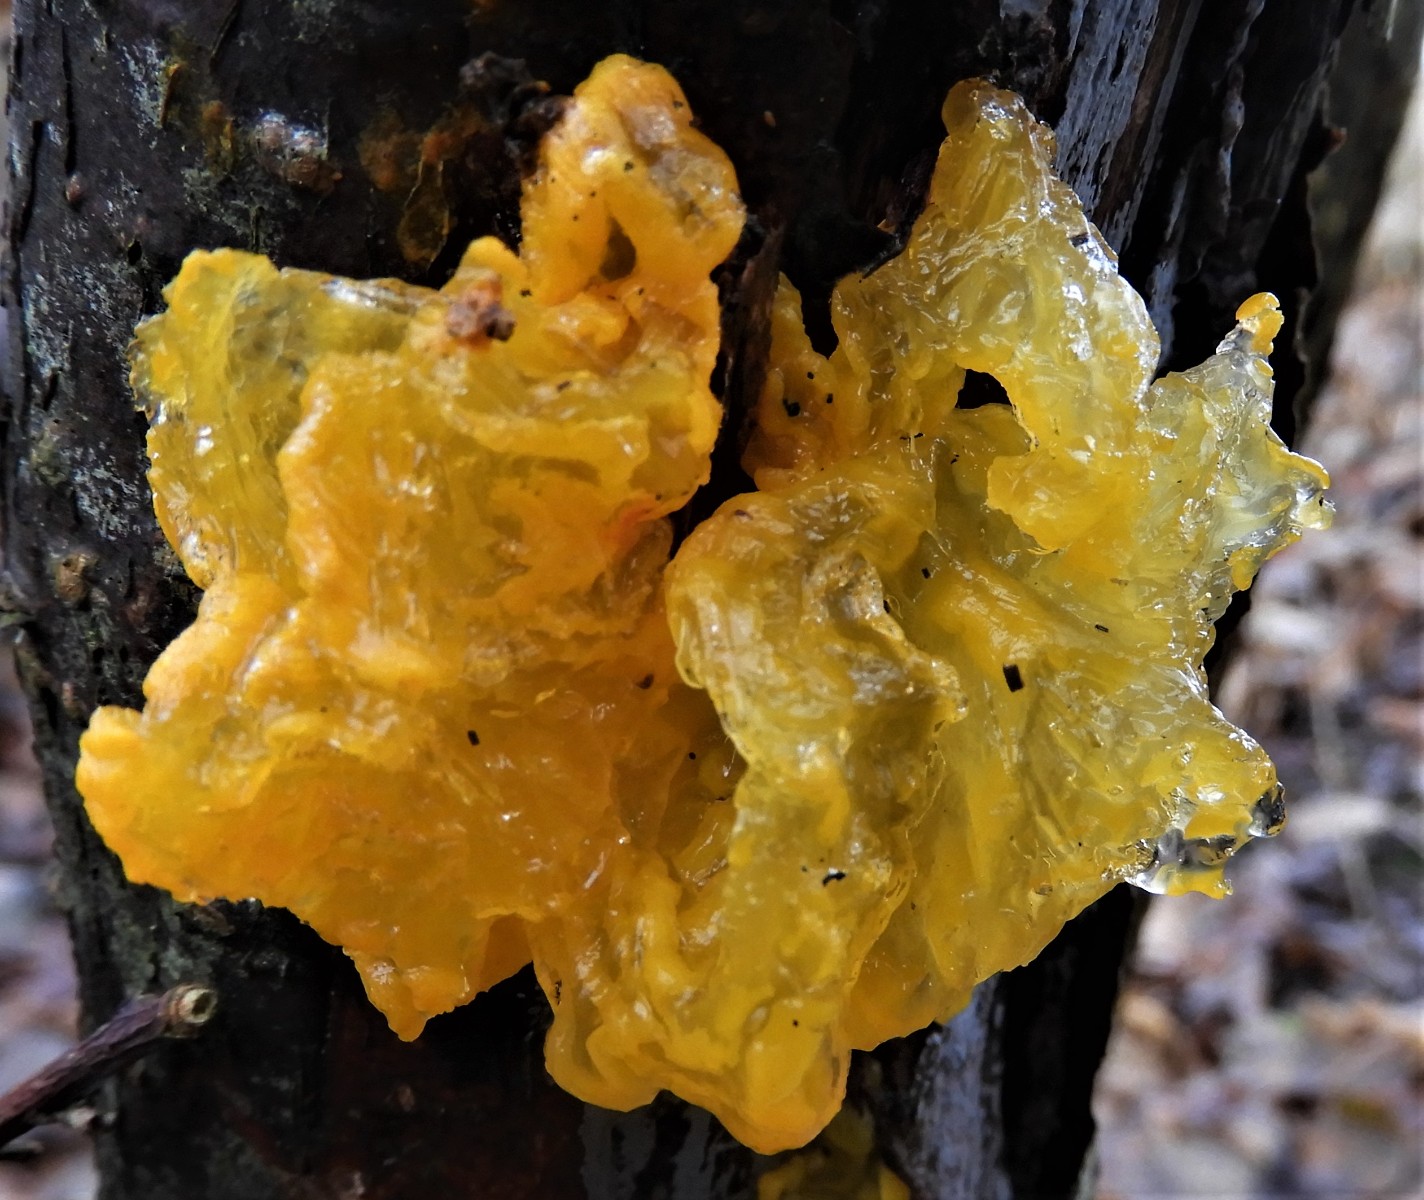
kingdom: Fungi
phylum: Basidiomycota
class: Tremellomycetes
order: Tremellales
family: Tremellaceae
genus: Tremella
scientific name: Tremella mesenterica
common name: gul bævresvamp
